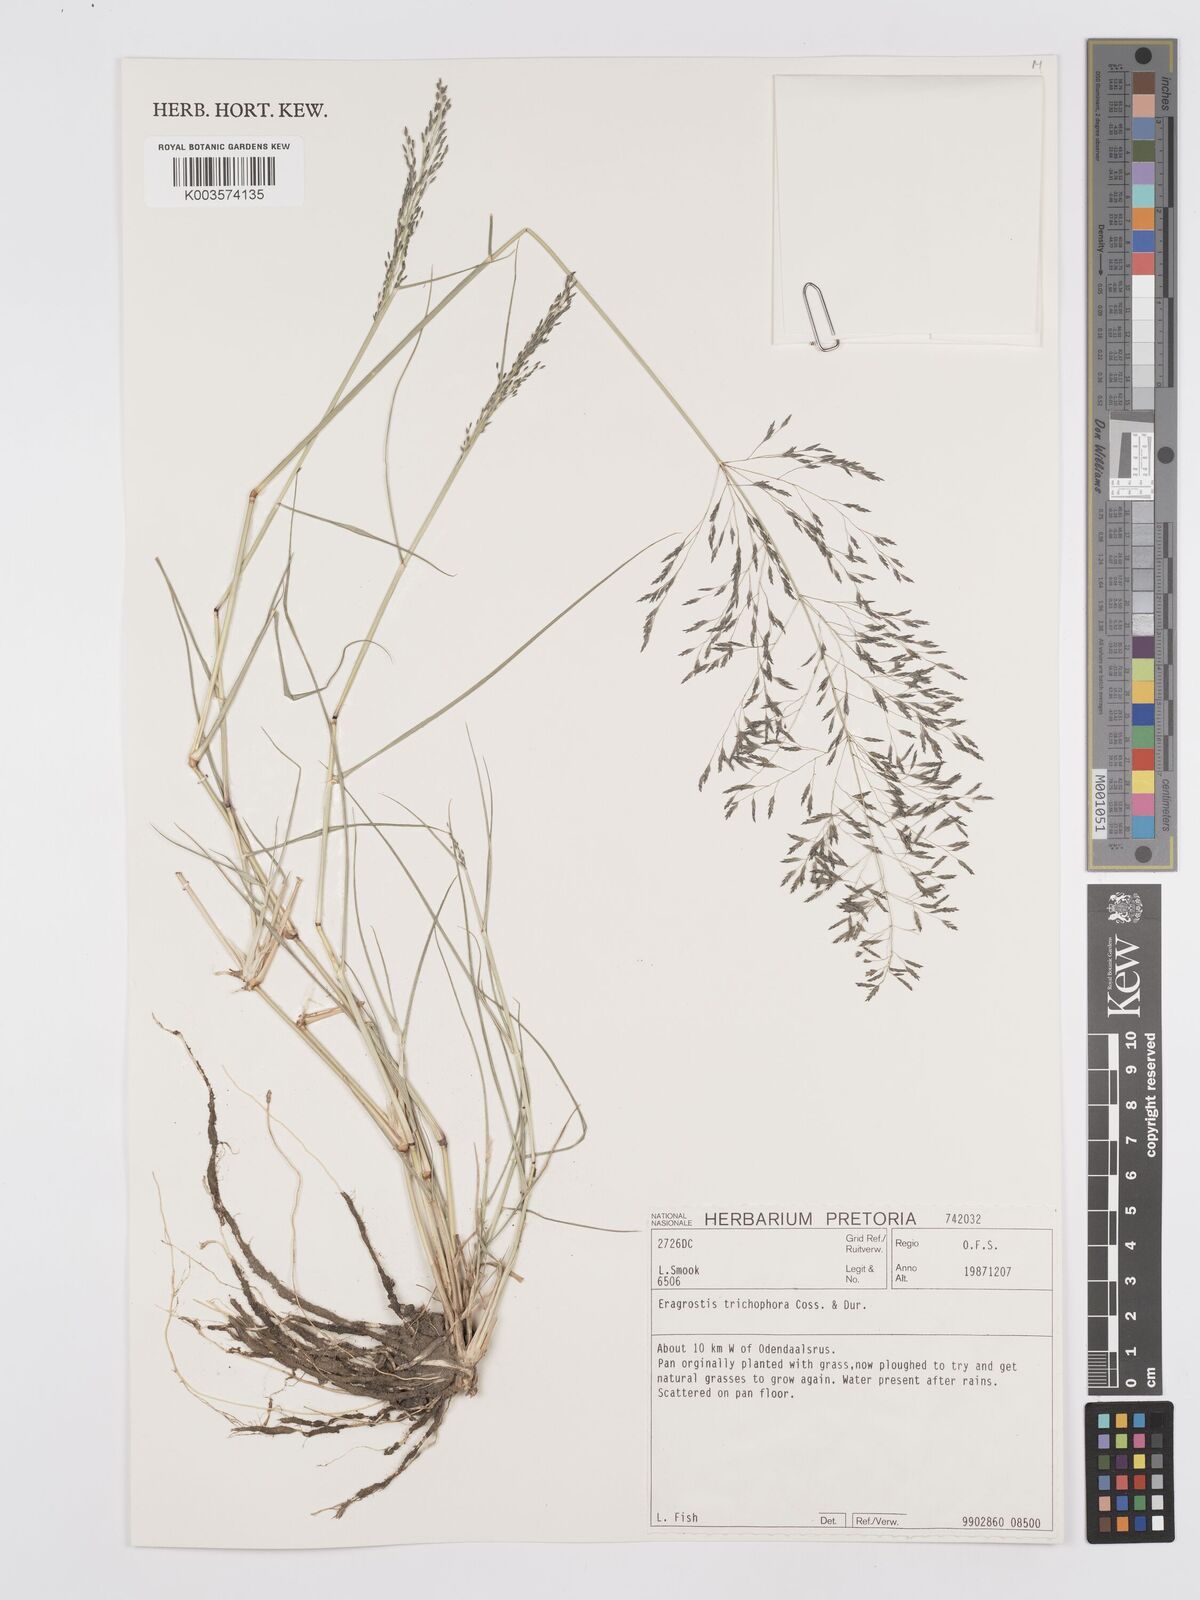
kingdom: Plantae
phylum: Tracheophyta
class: Liliopsida
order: Poales
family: Poaceae
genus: Eragrostis
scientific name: Eragrostis cylindriflora
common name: Cylinderflower lovegrass
